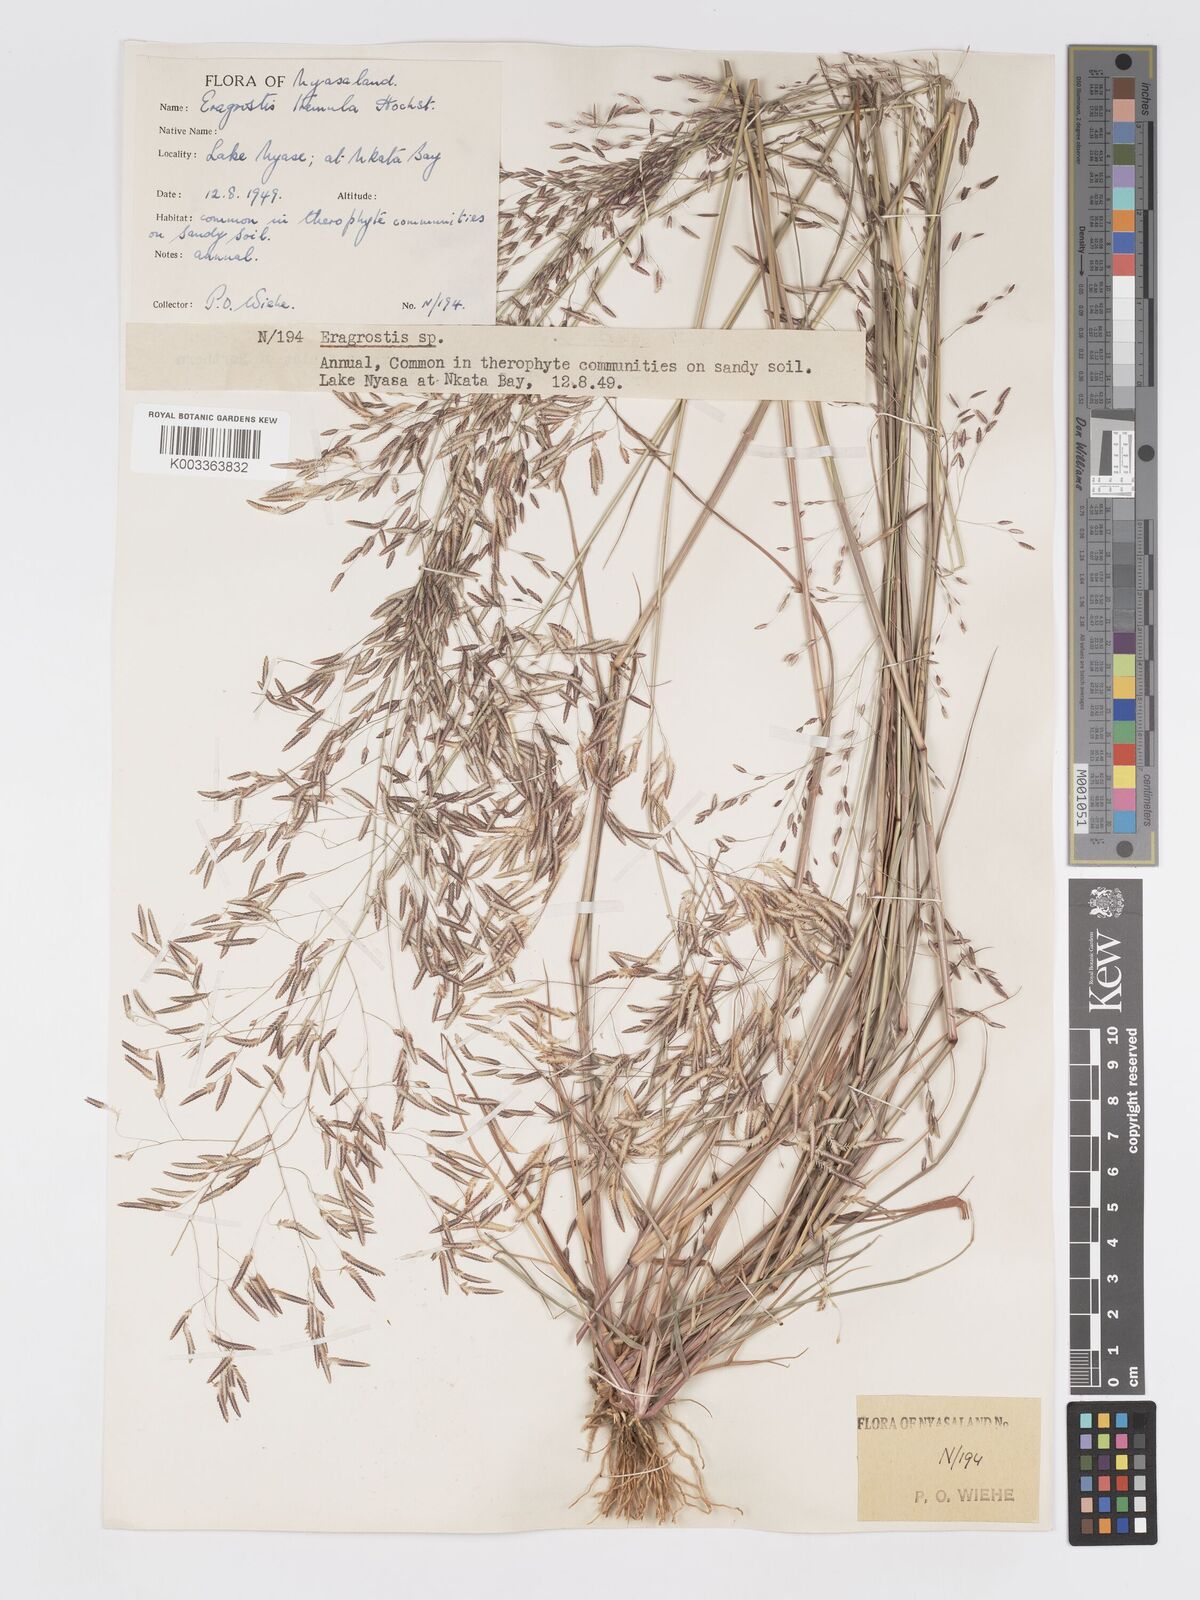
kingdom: Plantae
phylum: Tracheophyta
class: Liliopsida
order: Poales
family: Poaceae
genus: Eragrostis
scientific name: Eragrostis tremula
